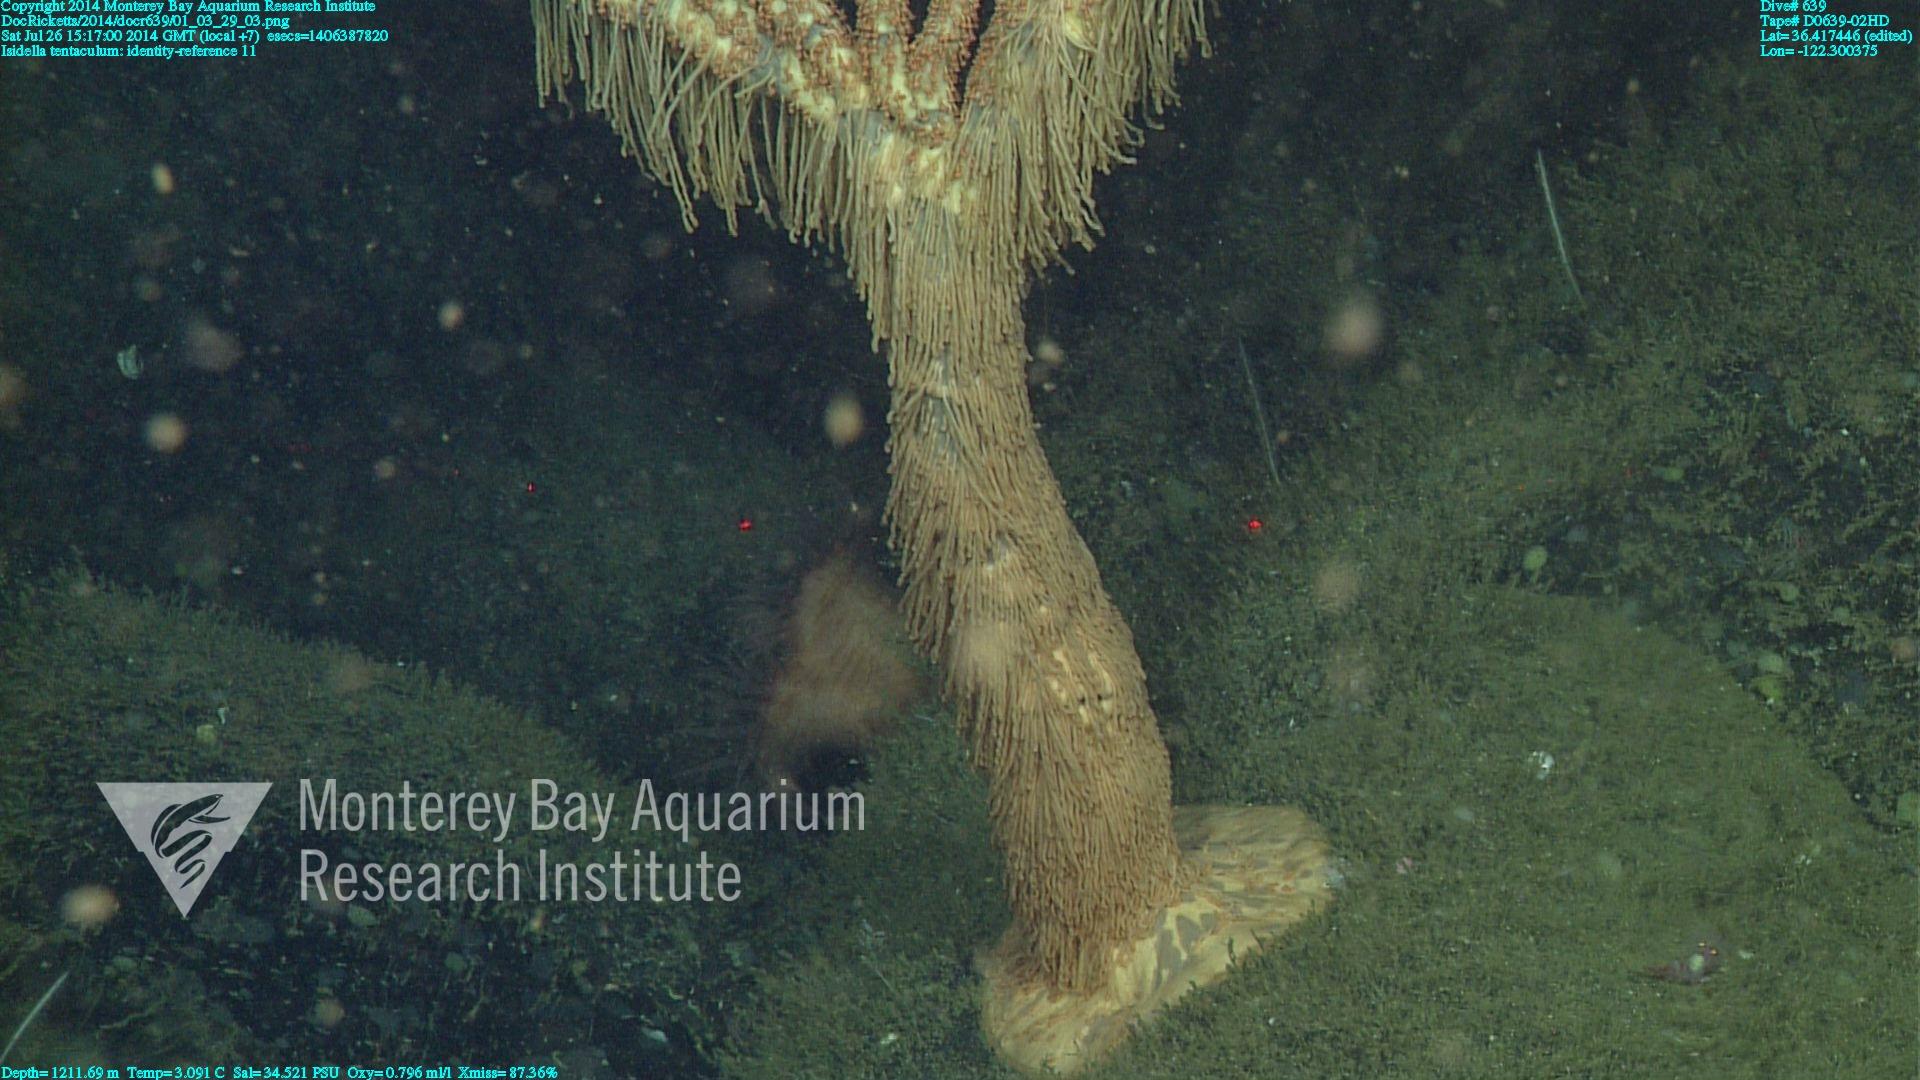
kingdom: Animalia
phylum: Cnidaria
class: Anthozoa
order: Scleralcyonacea
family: Keratoisididae
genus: Isidella
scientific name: Isidella tentaculum
